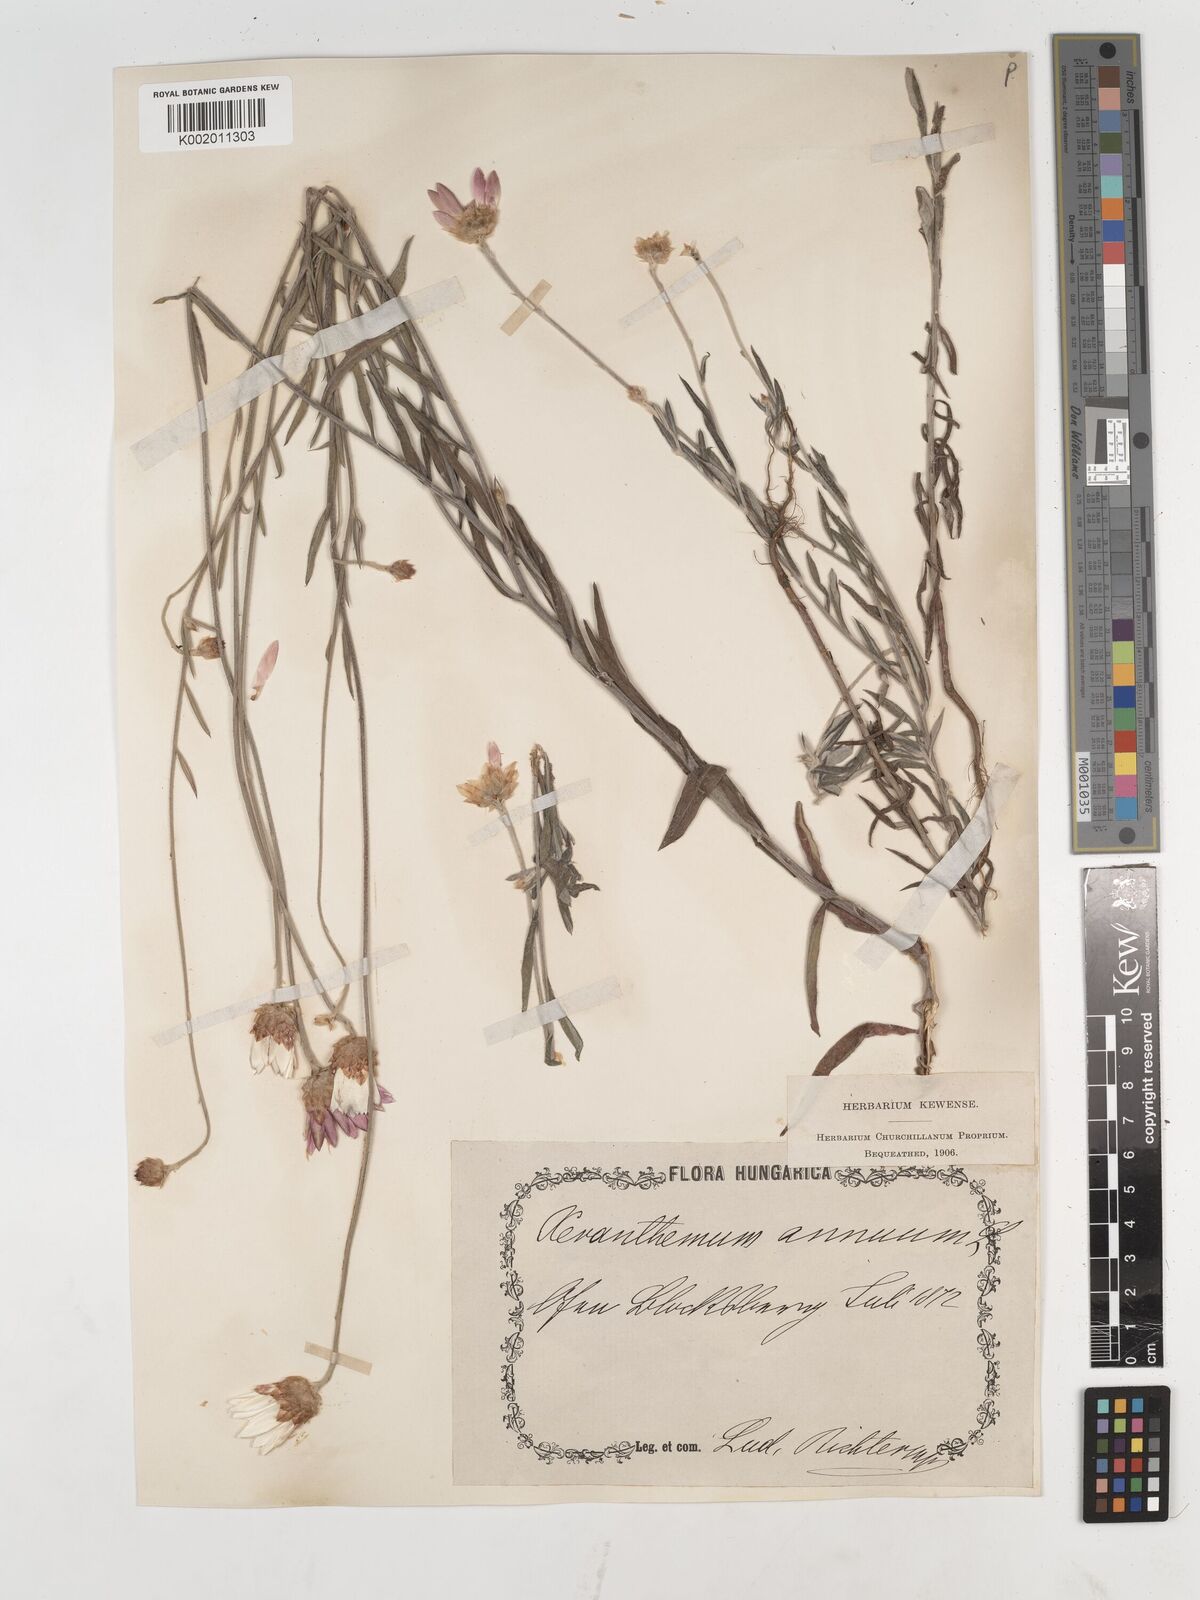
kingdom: Plantae
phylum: Tracheophyta
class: Magnoliopsida
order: Asterales
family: Asteraceae
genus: Xeranthemum
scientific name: Xeranthemum annuum
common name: Immortelle
